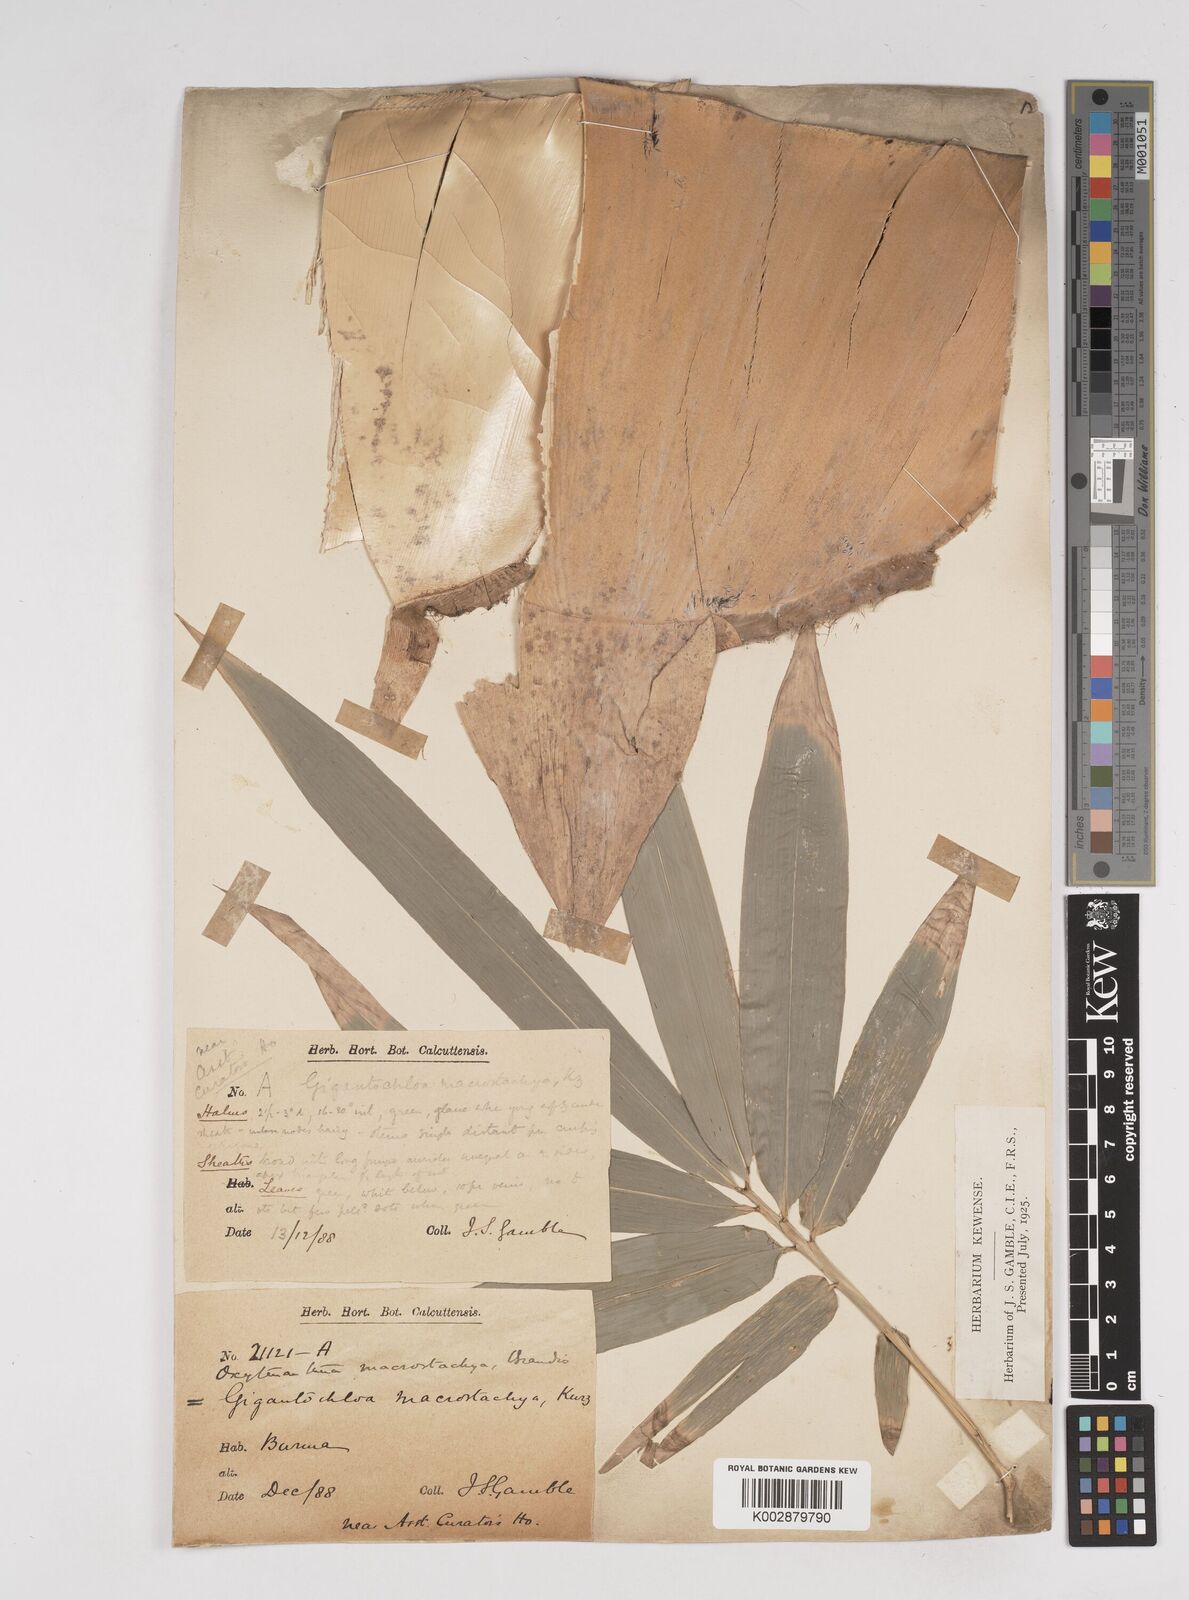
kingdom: Plantae
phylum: Tracheophyta
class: Liliopsida
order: Poales
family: Poaceae
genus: Gigantochloa
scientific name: Gigantochloa macrostachya
